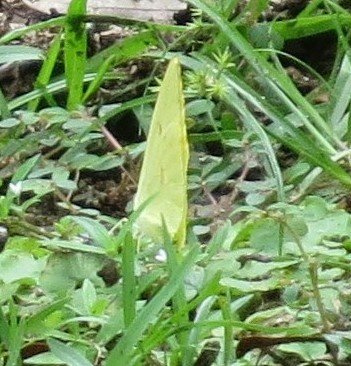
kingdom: Animalia
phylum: Arthropoda
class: Insecta
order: Lepidoptera
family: Pieridae
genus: Phoebis
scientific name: Phoebis sennae
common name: Cloudless Sulphur
